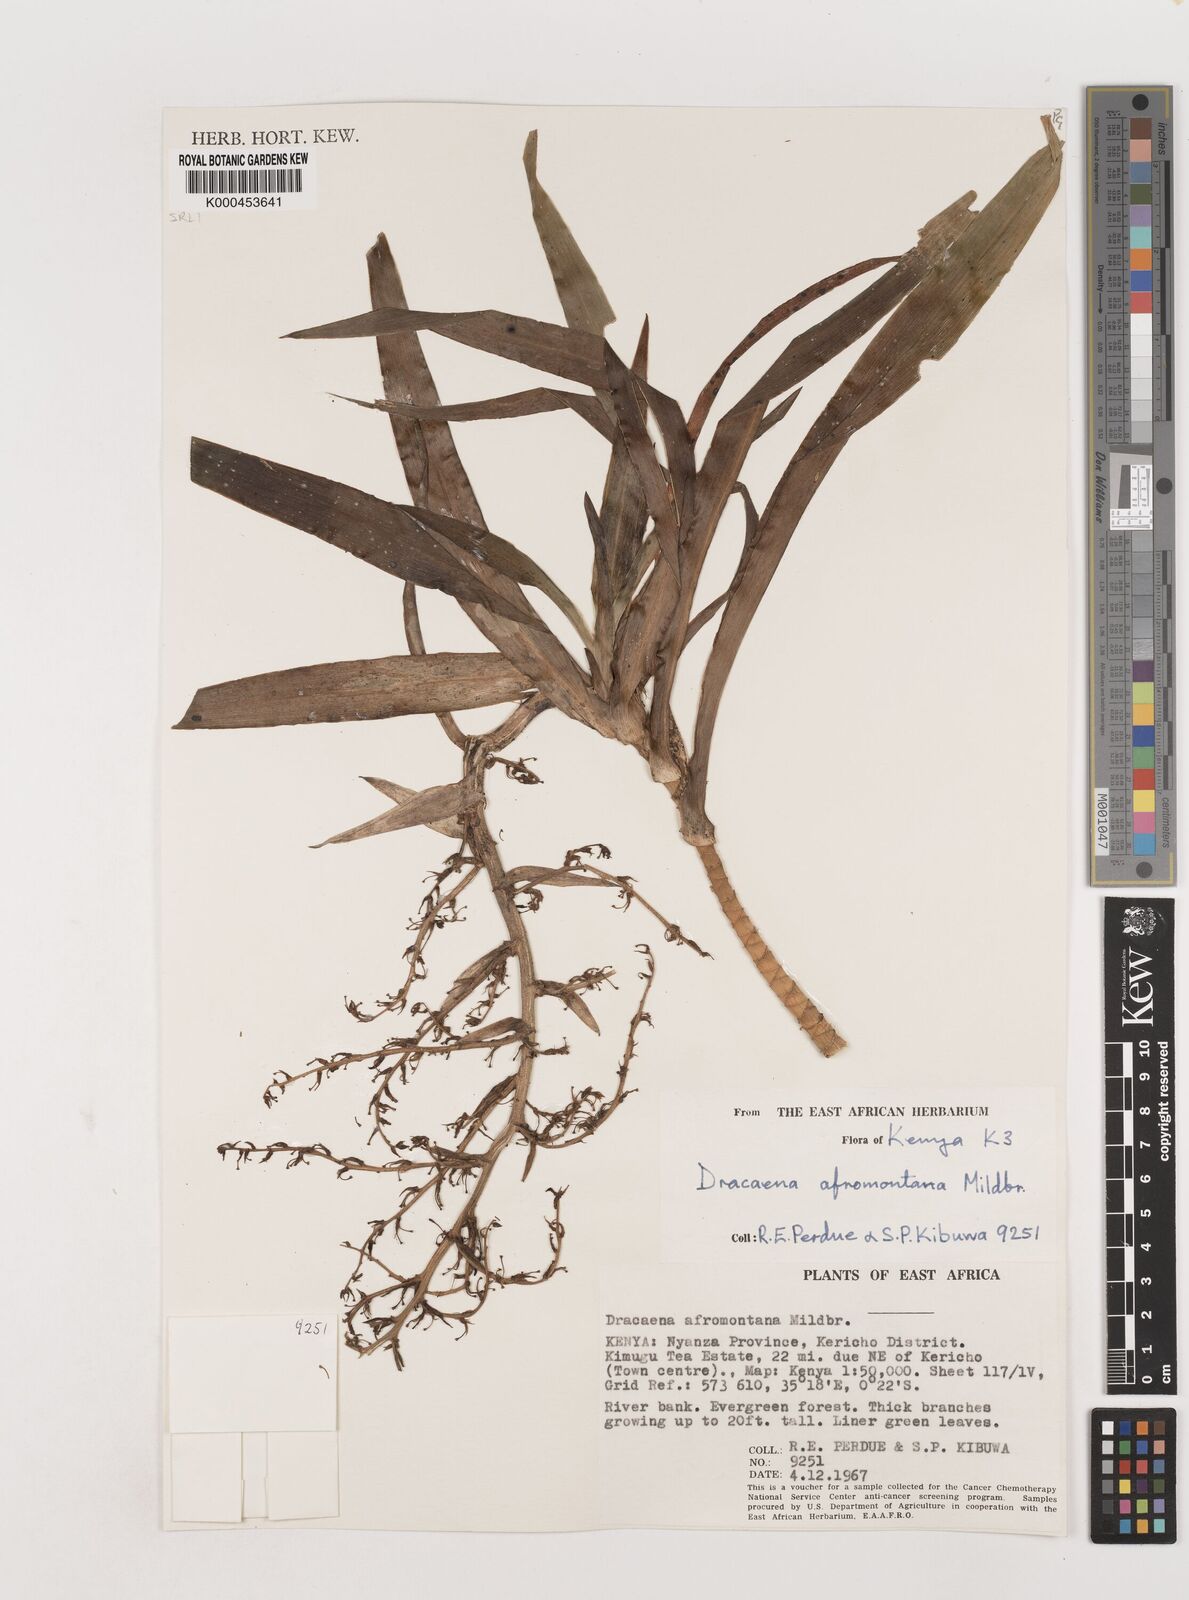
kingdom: Plantae
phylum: Tracheophyta
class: Liliopsida
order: Asparagales
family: Asparagaceae
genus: Dracaena
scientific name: Dracaena afromontana
